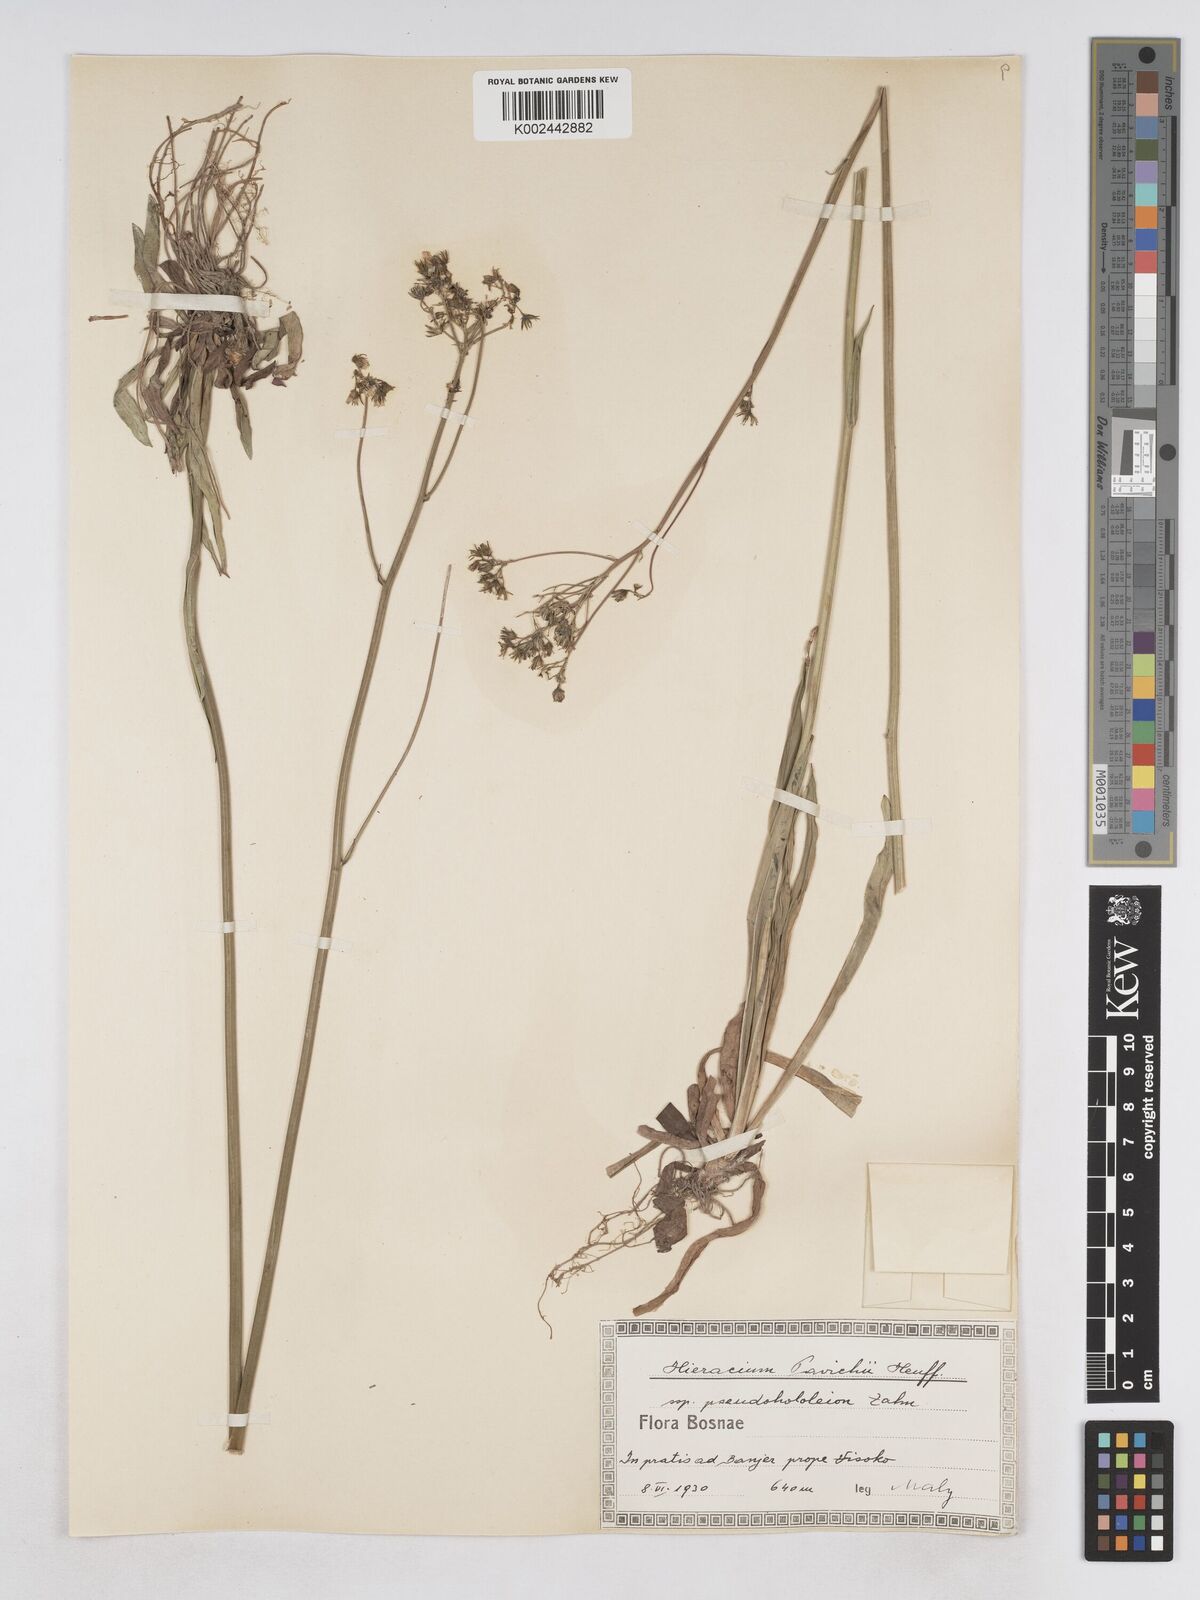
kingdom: Plantae
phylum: Tracheophyta
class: Magnoliopsida
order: Asterales
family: Asteraceae
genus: Pilosella
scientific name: Pilosella pavichii
